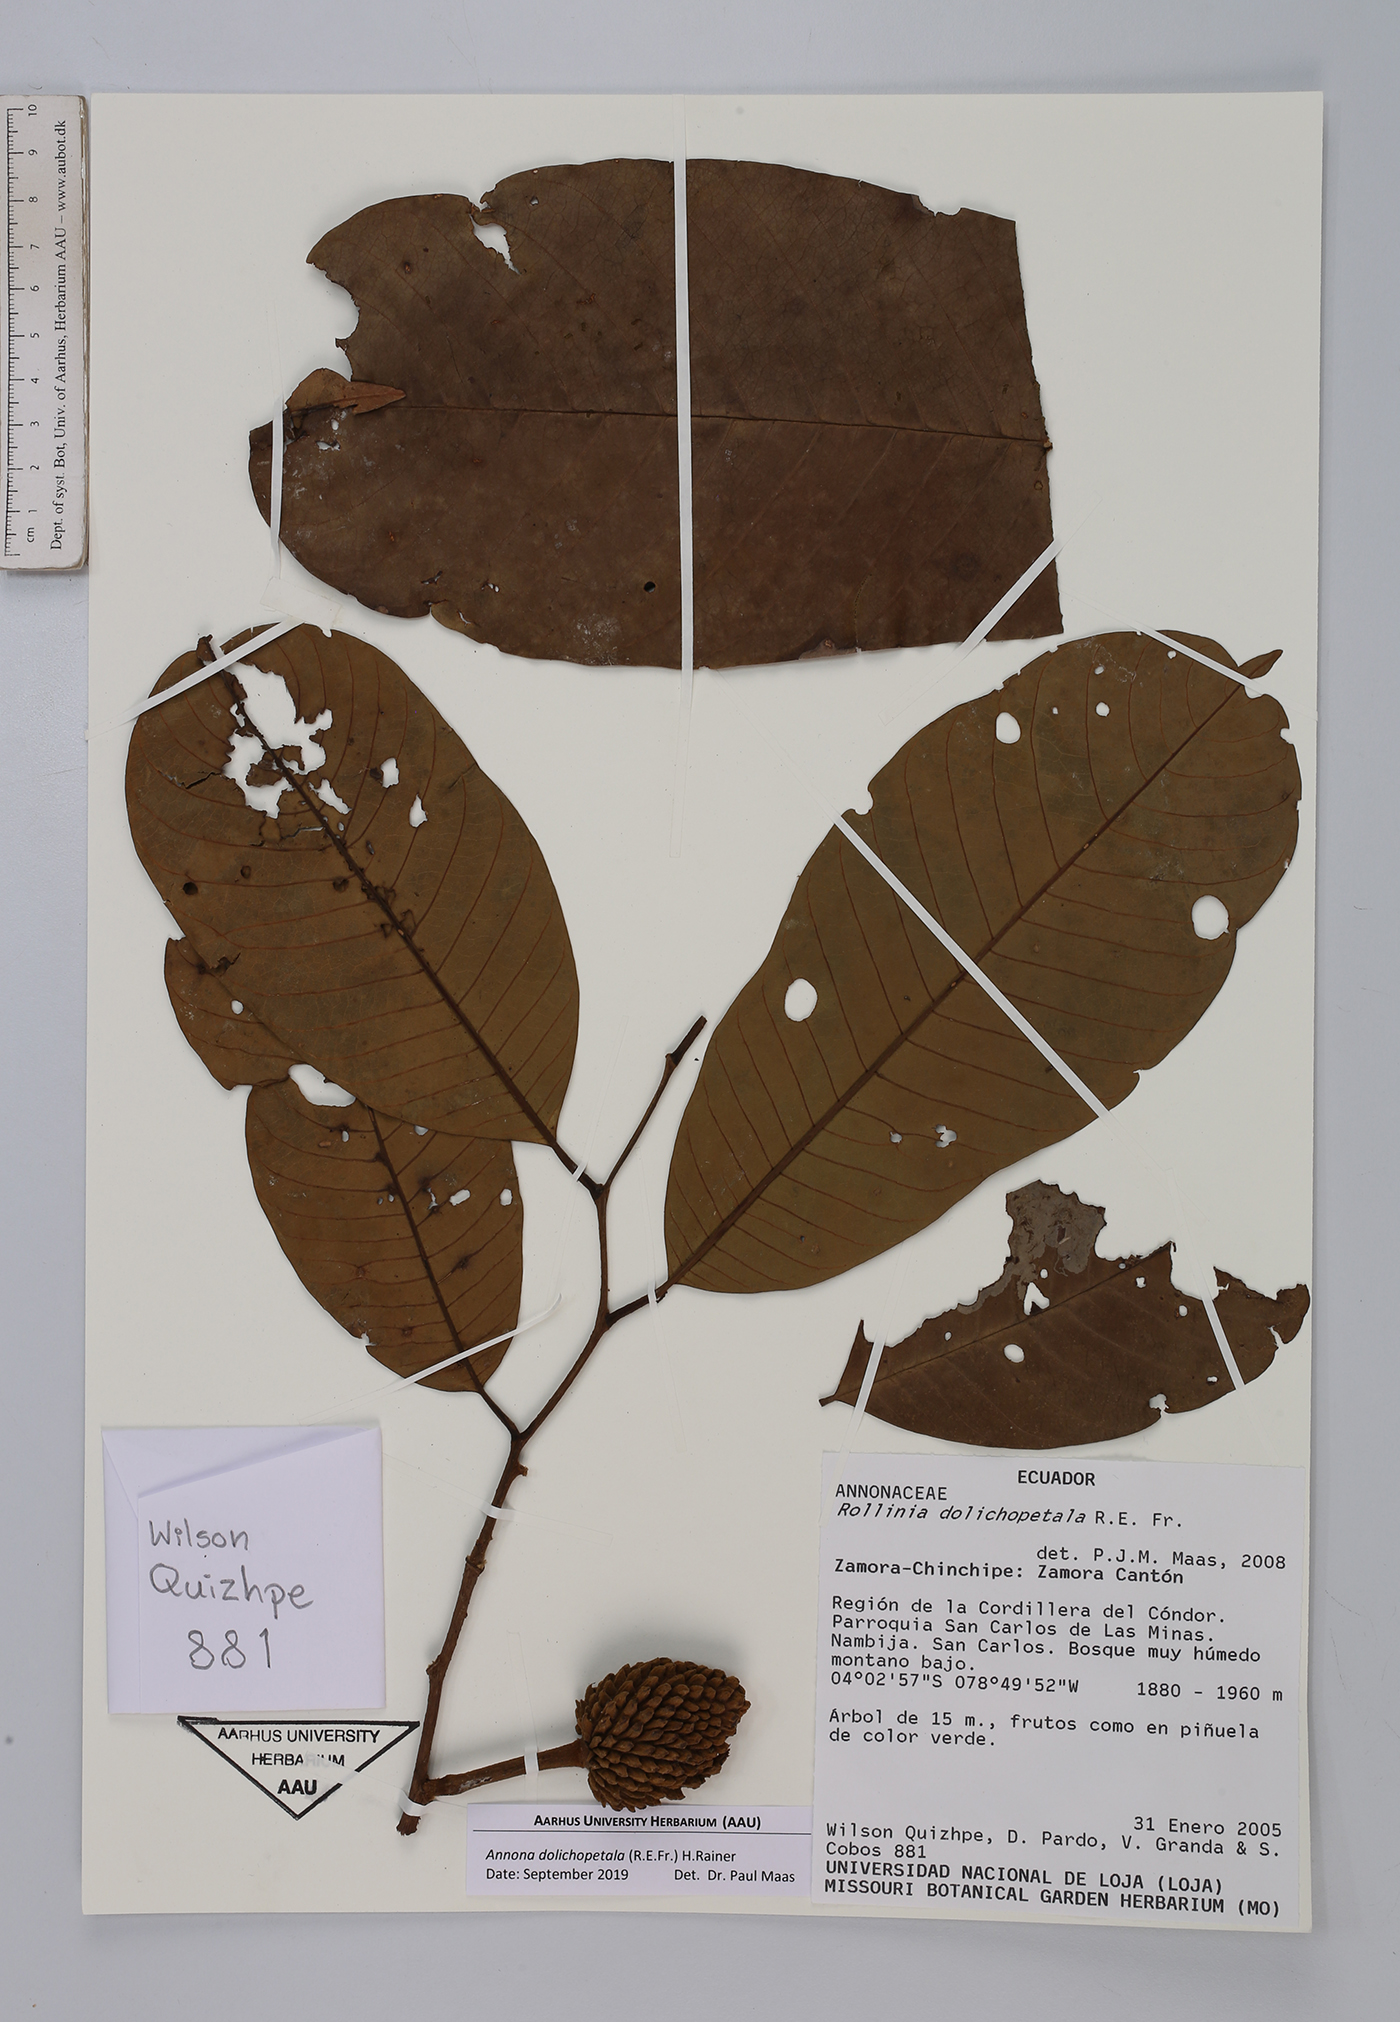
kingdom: Plantae
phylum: Tracheophyta
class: Magnoliopsida
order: Magnoliales
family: Annonaceae
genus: Annona
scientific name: Annona dolichopetala
